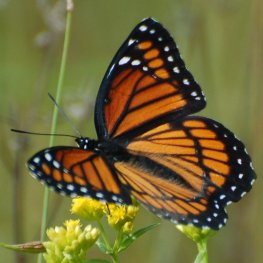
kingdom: Animalia
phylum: Arthropoda
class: Insecta
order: Lepidoptera
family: Nymphalidae
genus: Limenitis
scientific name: Limenitis archippus
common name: Viceroy
